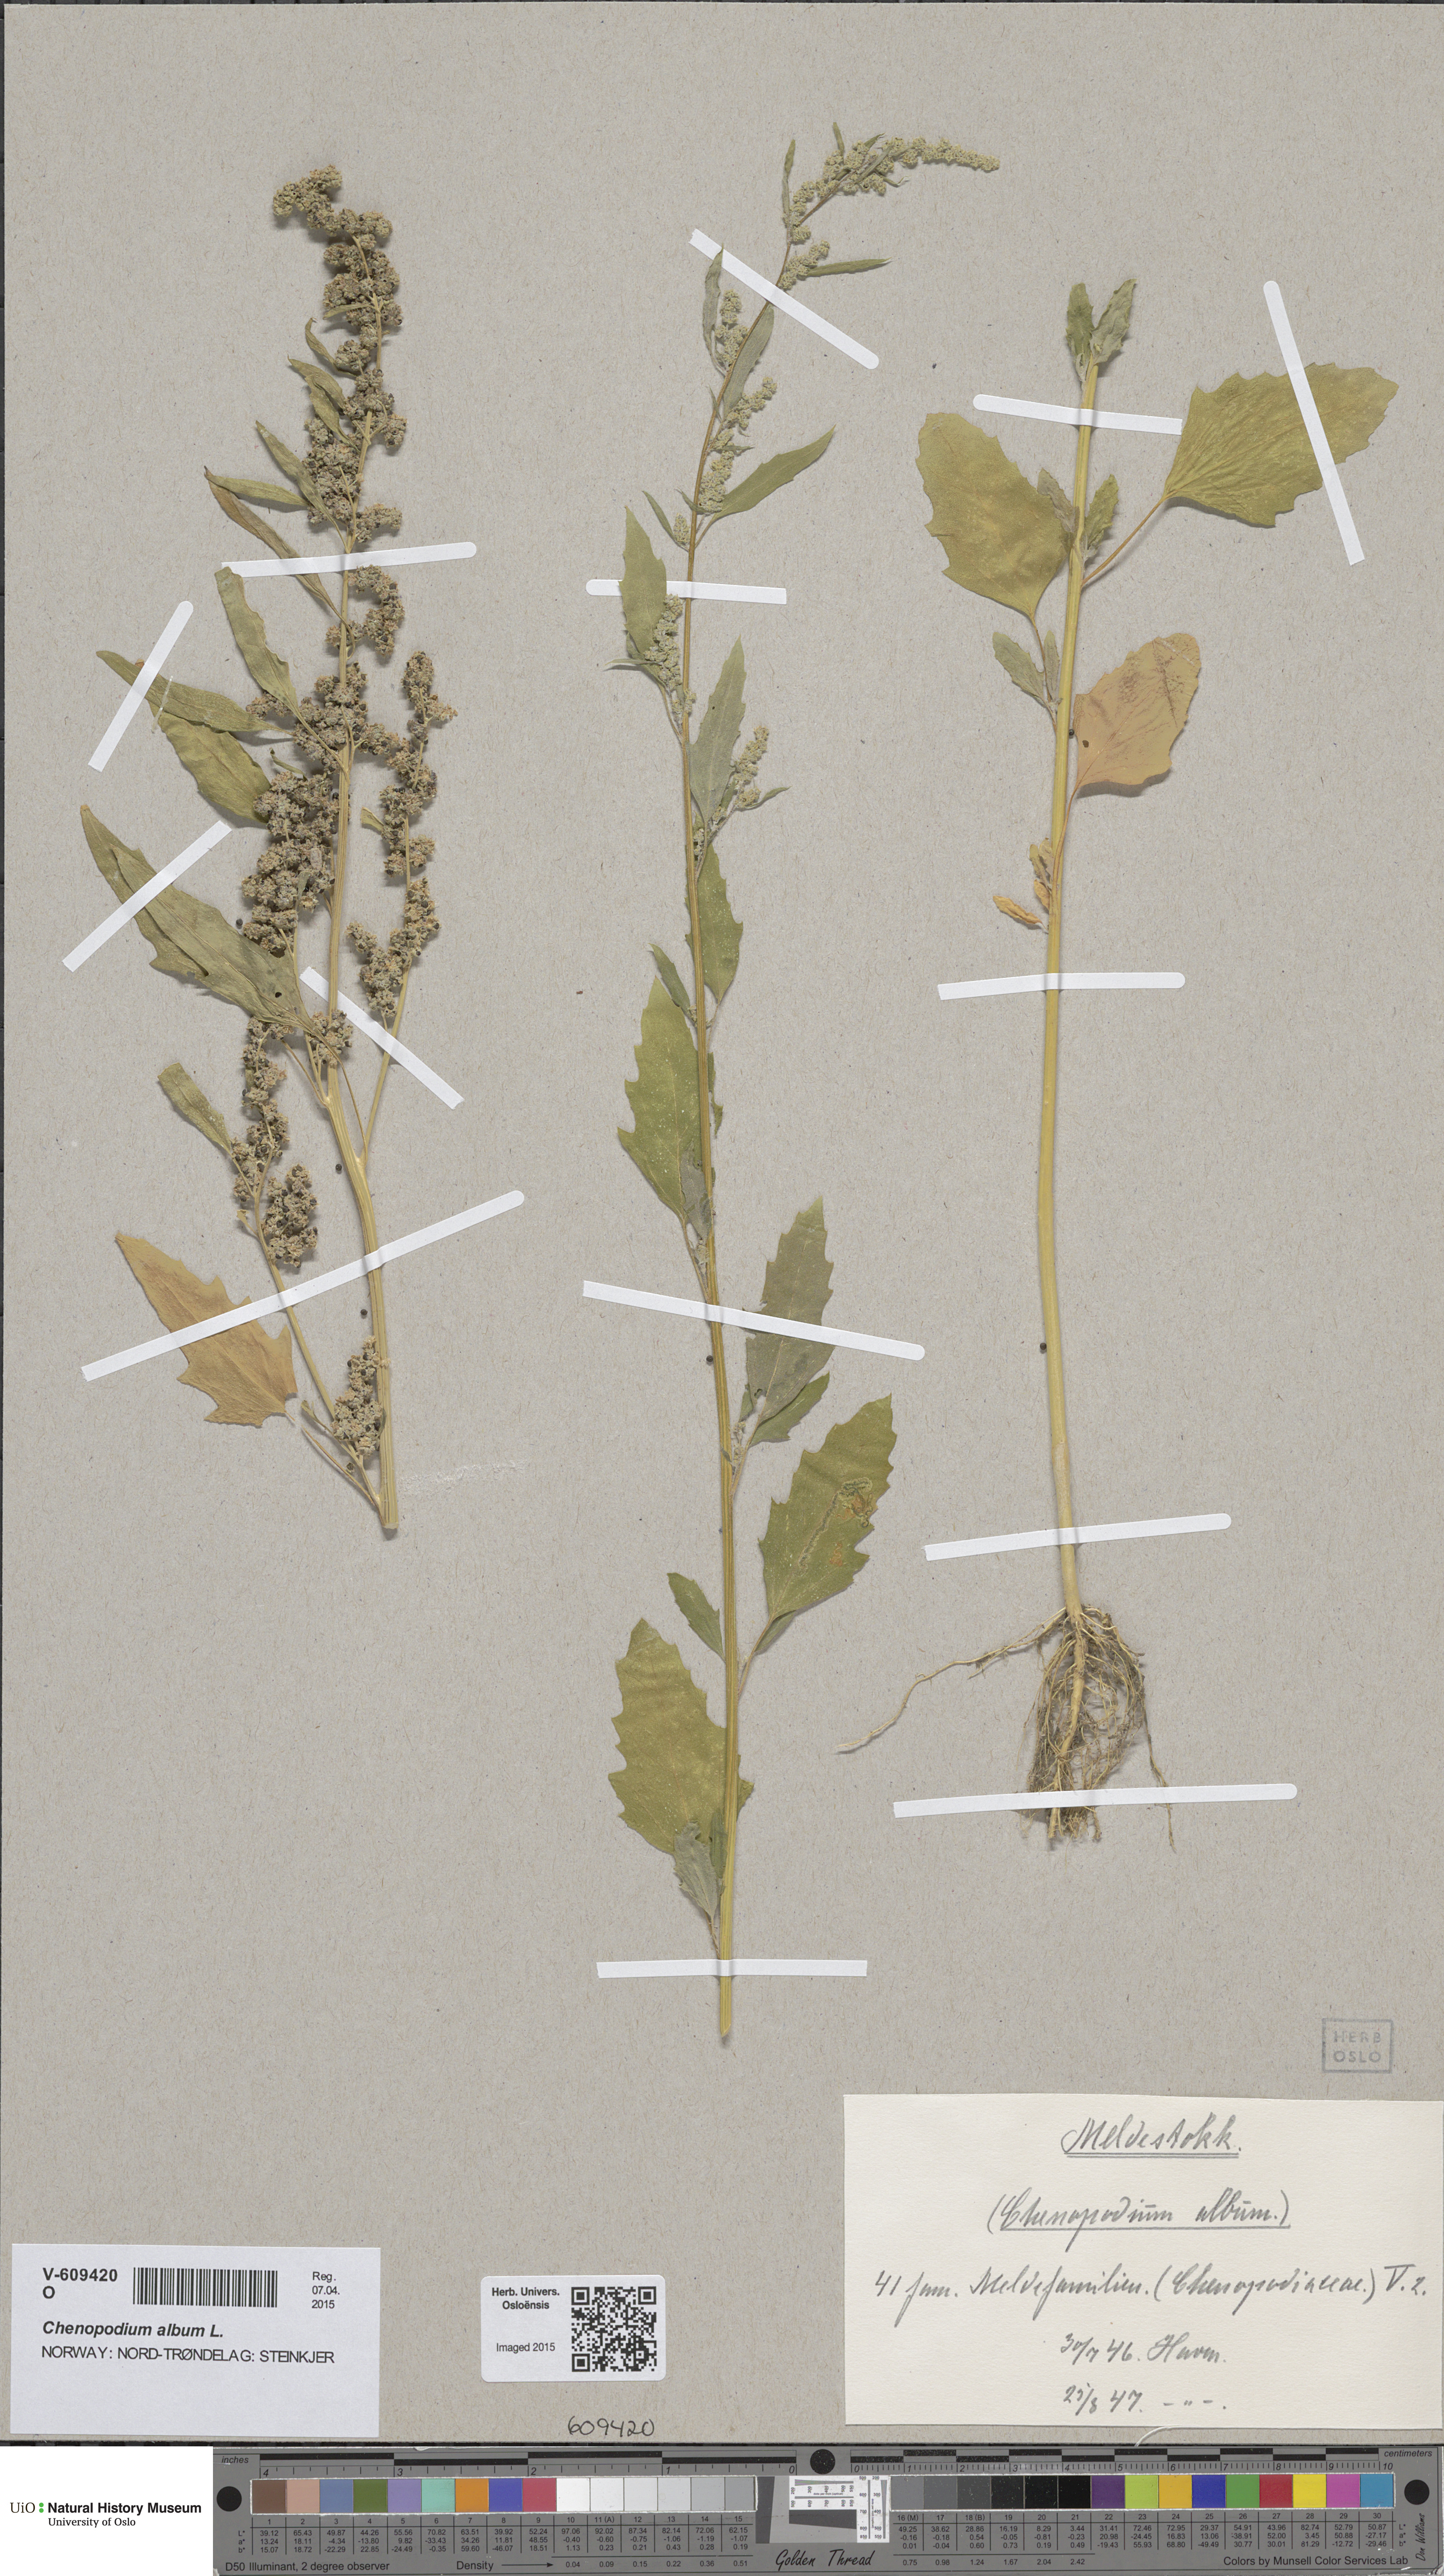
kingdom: Plantae
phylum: Tracheophyta
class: Magnoliopsida
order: Caryophyllales
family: Amaranthaceae
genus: Chenopodium
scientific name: Chenopodium suecicum
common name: Swedish goosefoot
